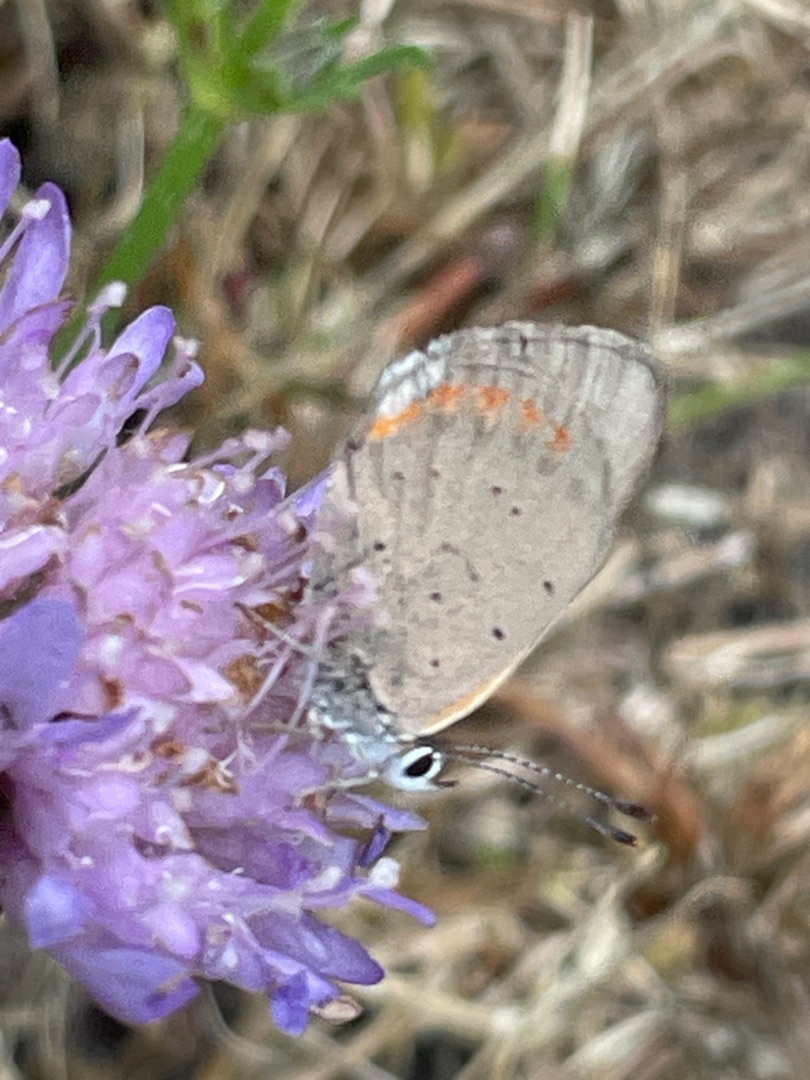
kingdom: Animalia
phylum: Arthropoda
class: Insecta
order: Lepidoptera
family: Lycaenidae
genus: Lycaena
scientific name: Lycaena phlaeas
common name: Lille ildfugl
